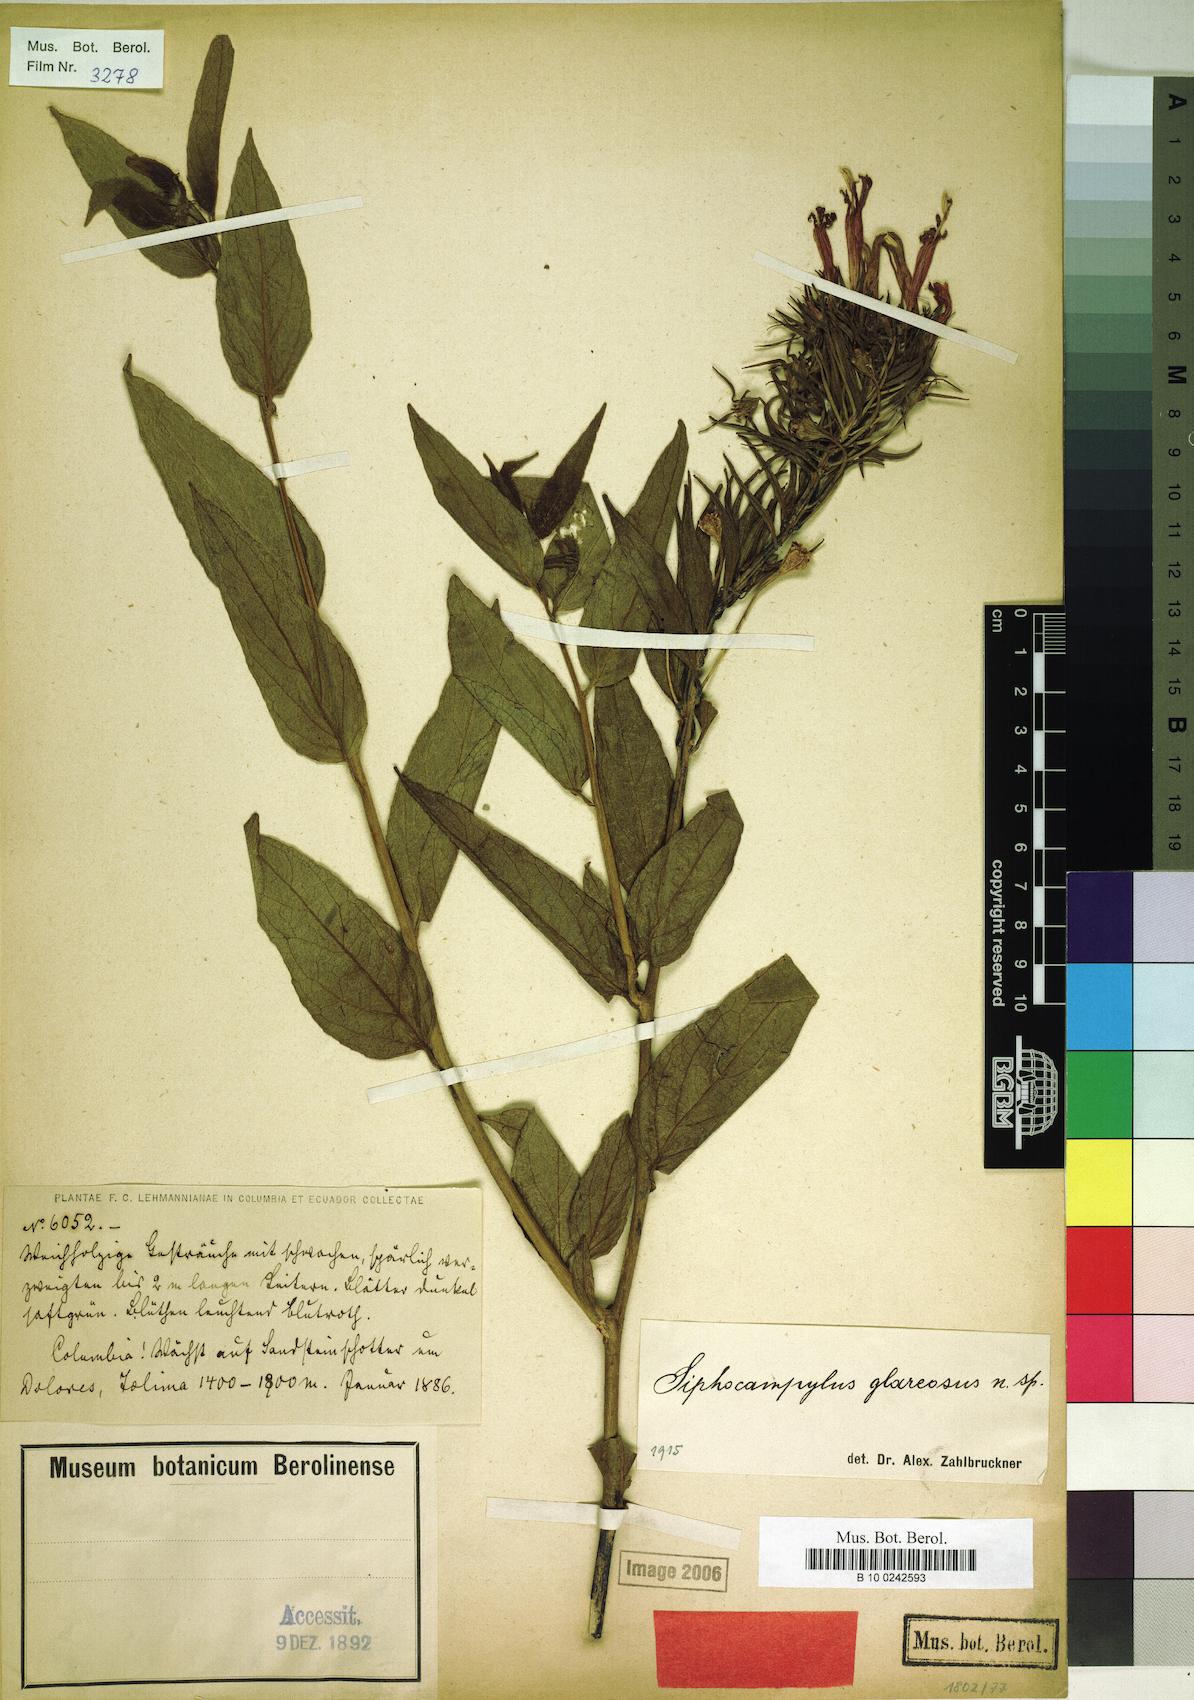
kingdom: Plantae
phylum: Tracheophyta
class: Magnoliopsida
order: Asterales
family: Campanulaceae
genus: Siphocampylus
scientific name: Siphocampylus glareosus
